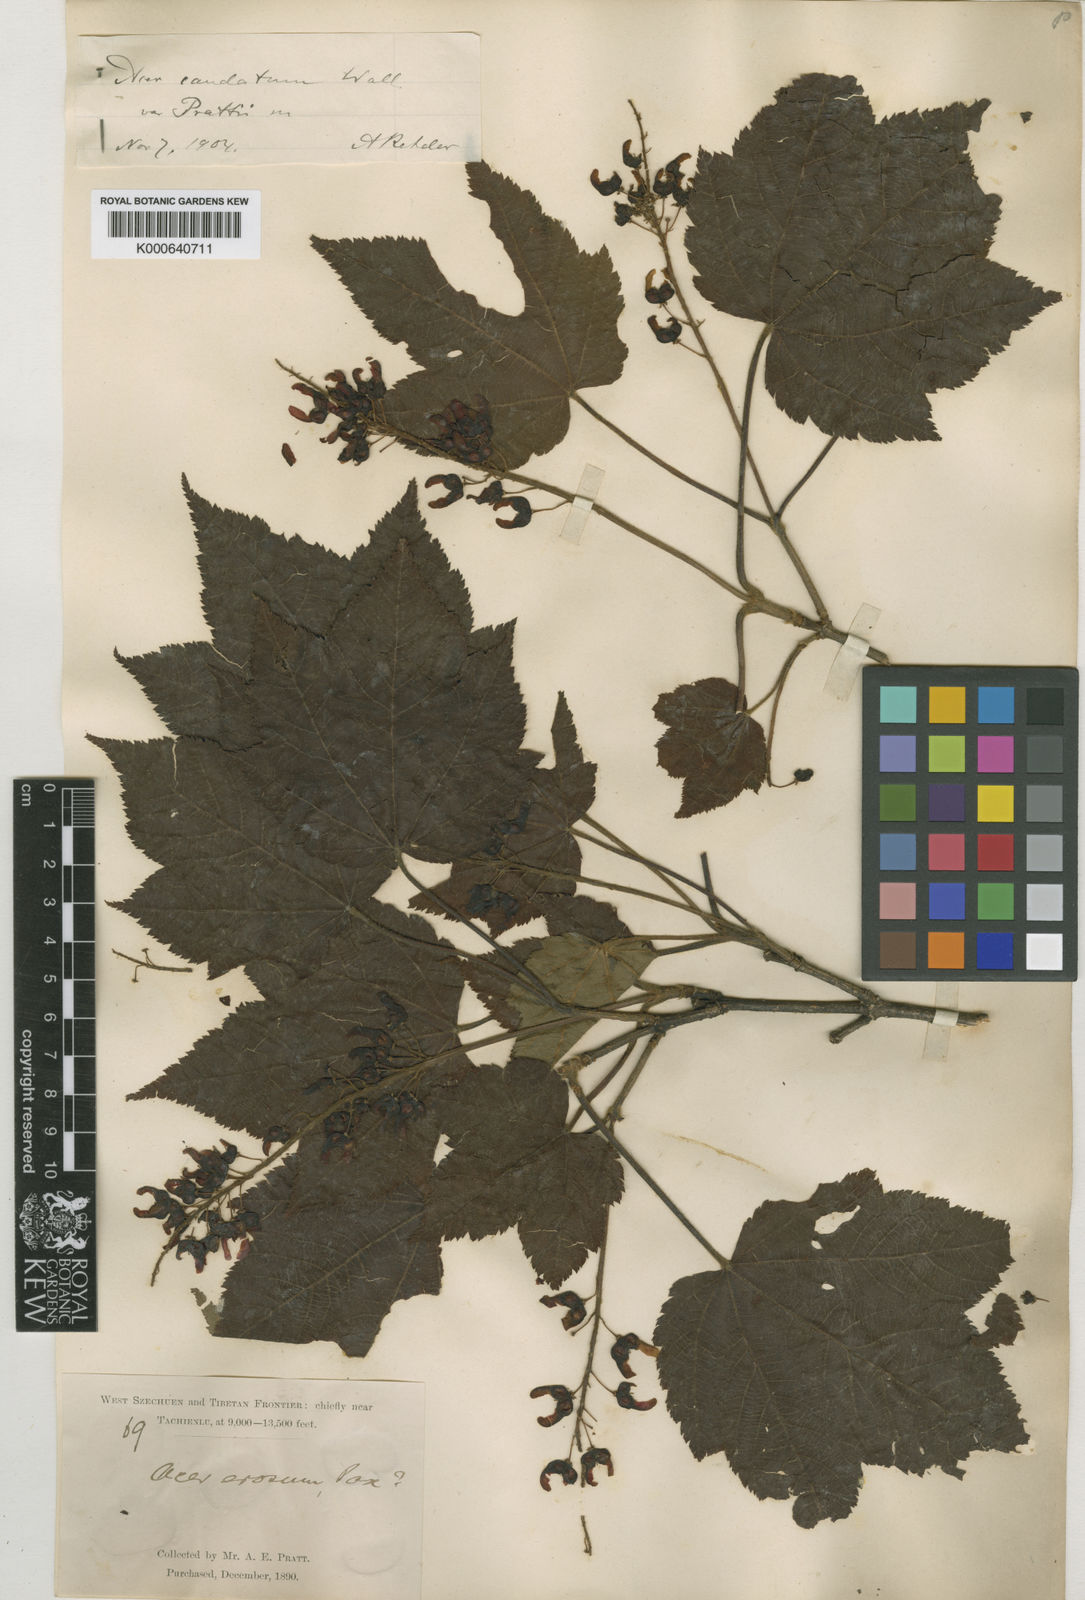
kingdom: Plantae
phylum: Tracheophyta
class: Magnoliopsida
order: Sapindales
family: Sapindaceae
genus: Acer
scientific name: Acer caudatum
